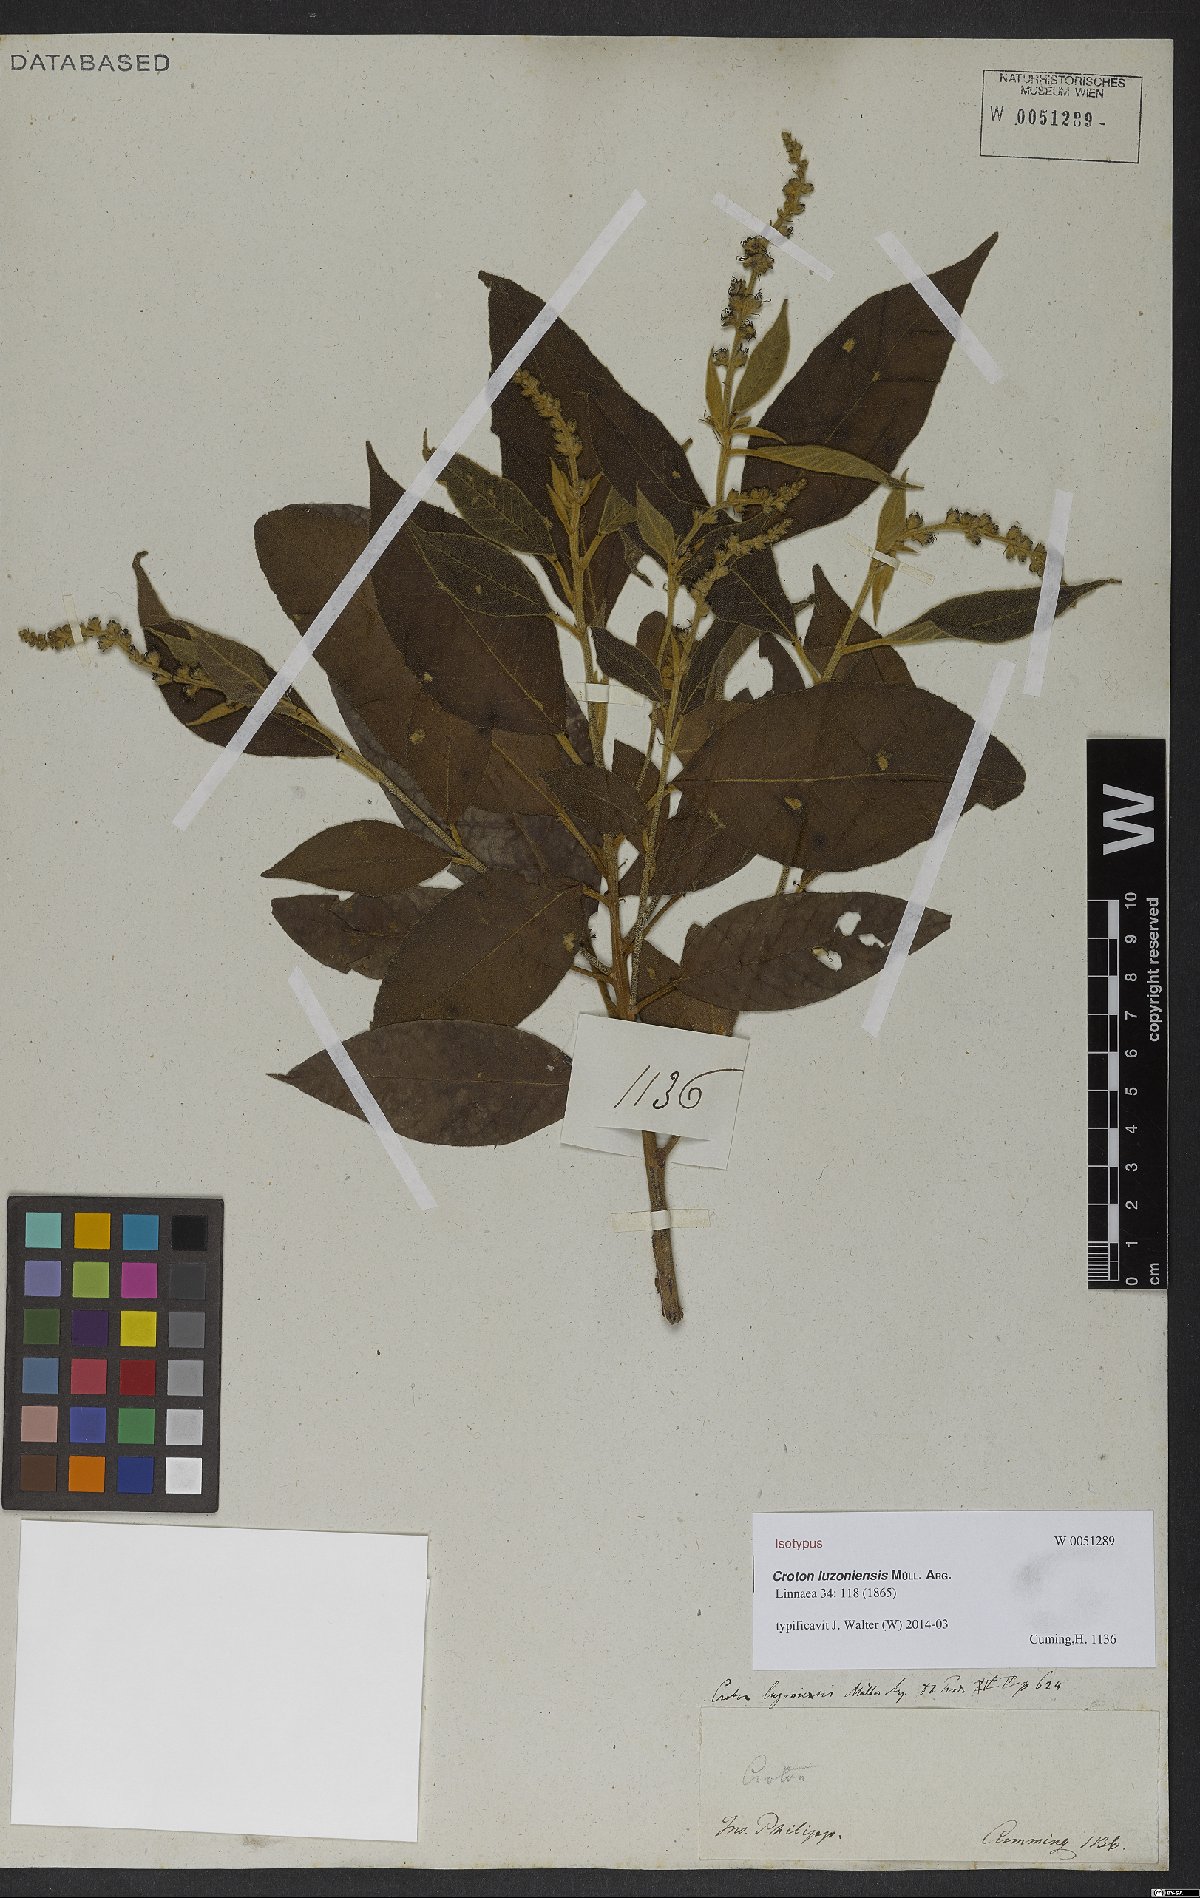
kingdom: Plantae
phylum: Tracheophyta
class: Magnoliopsida
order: Malpighiales
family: Euphorbiaceae
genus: Croton
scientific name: Croton luzoniensis
